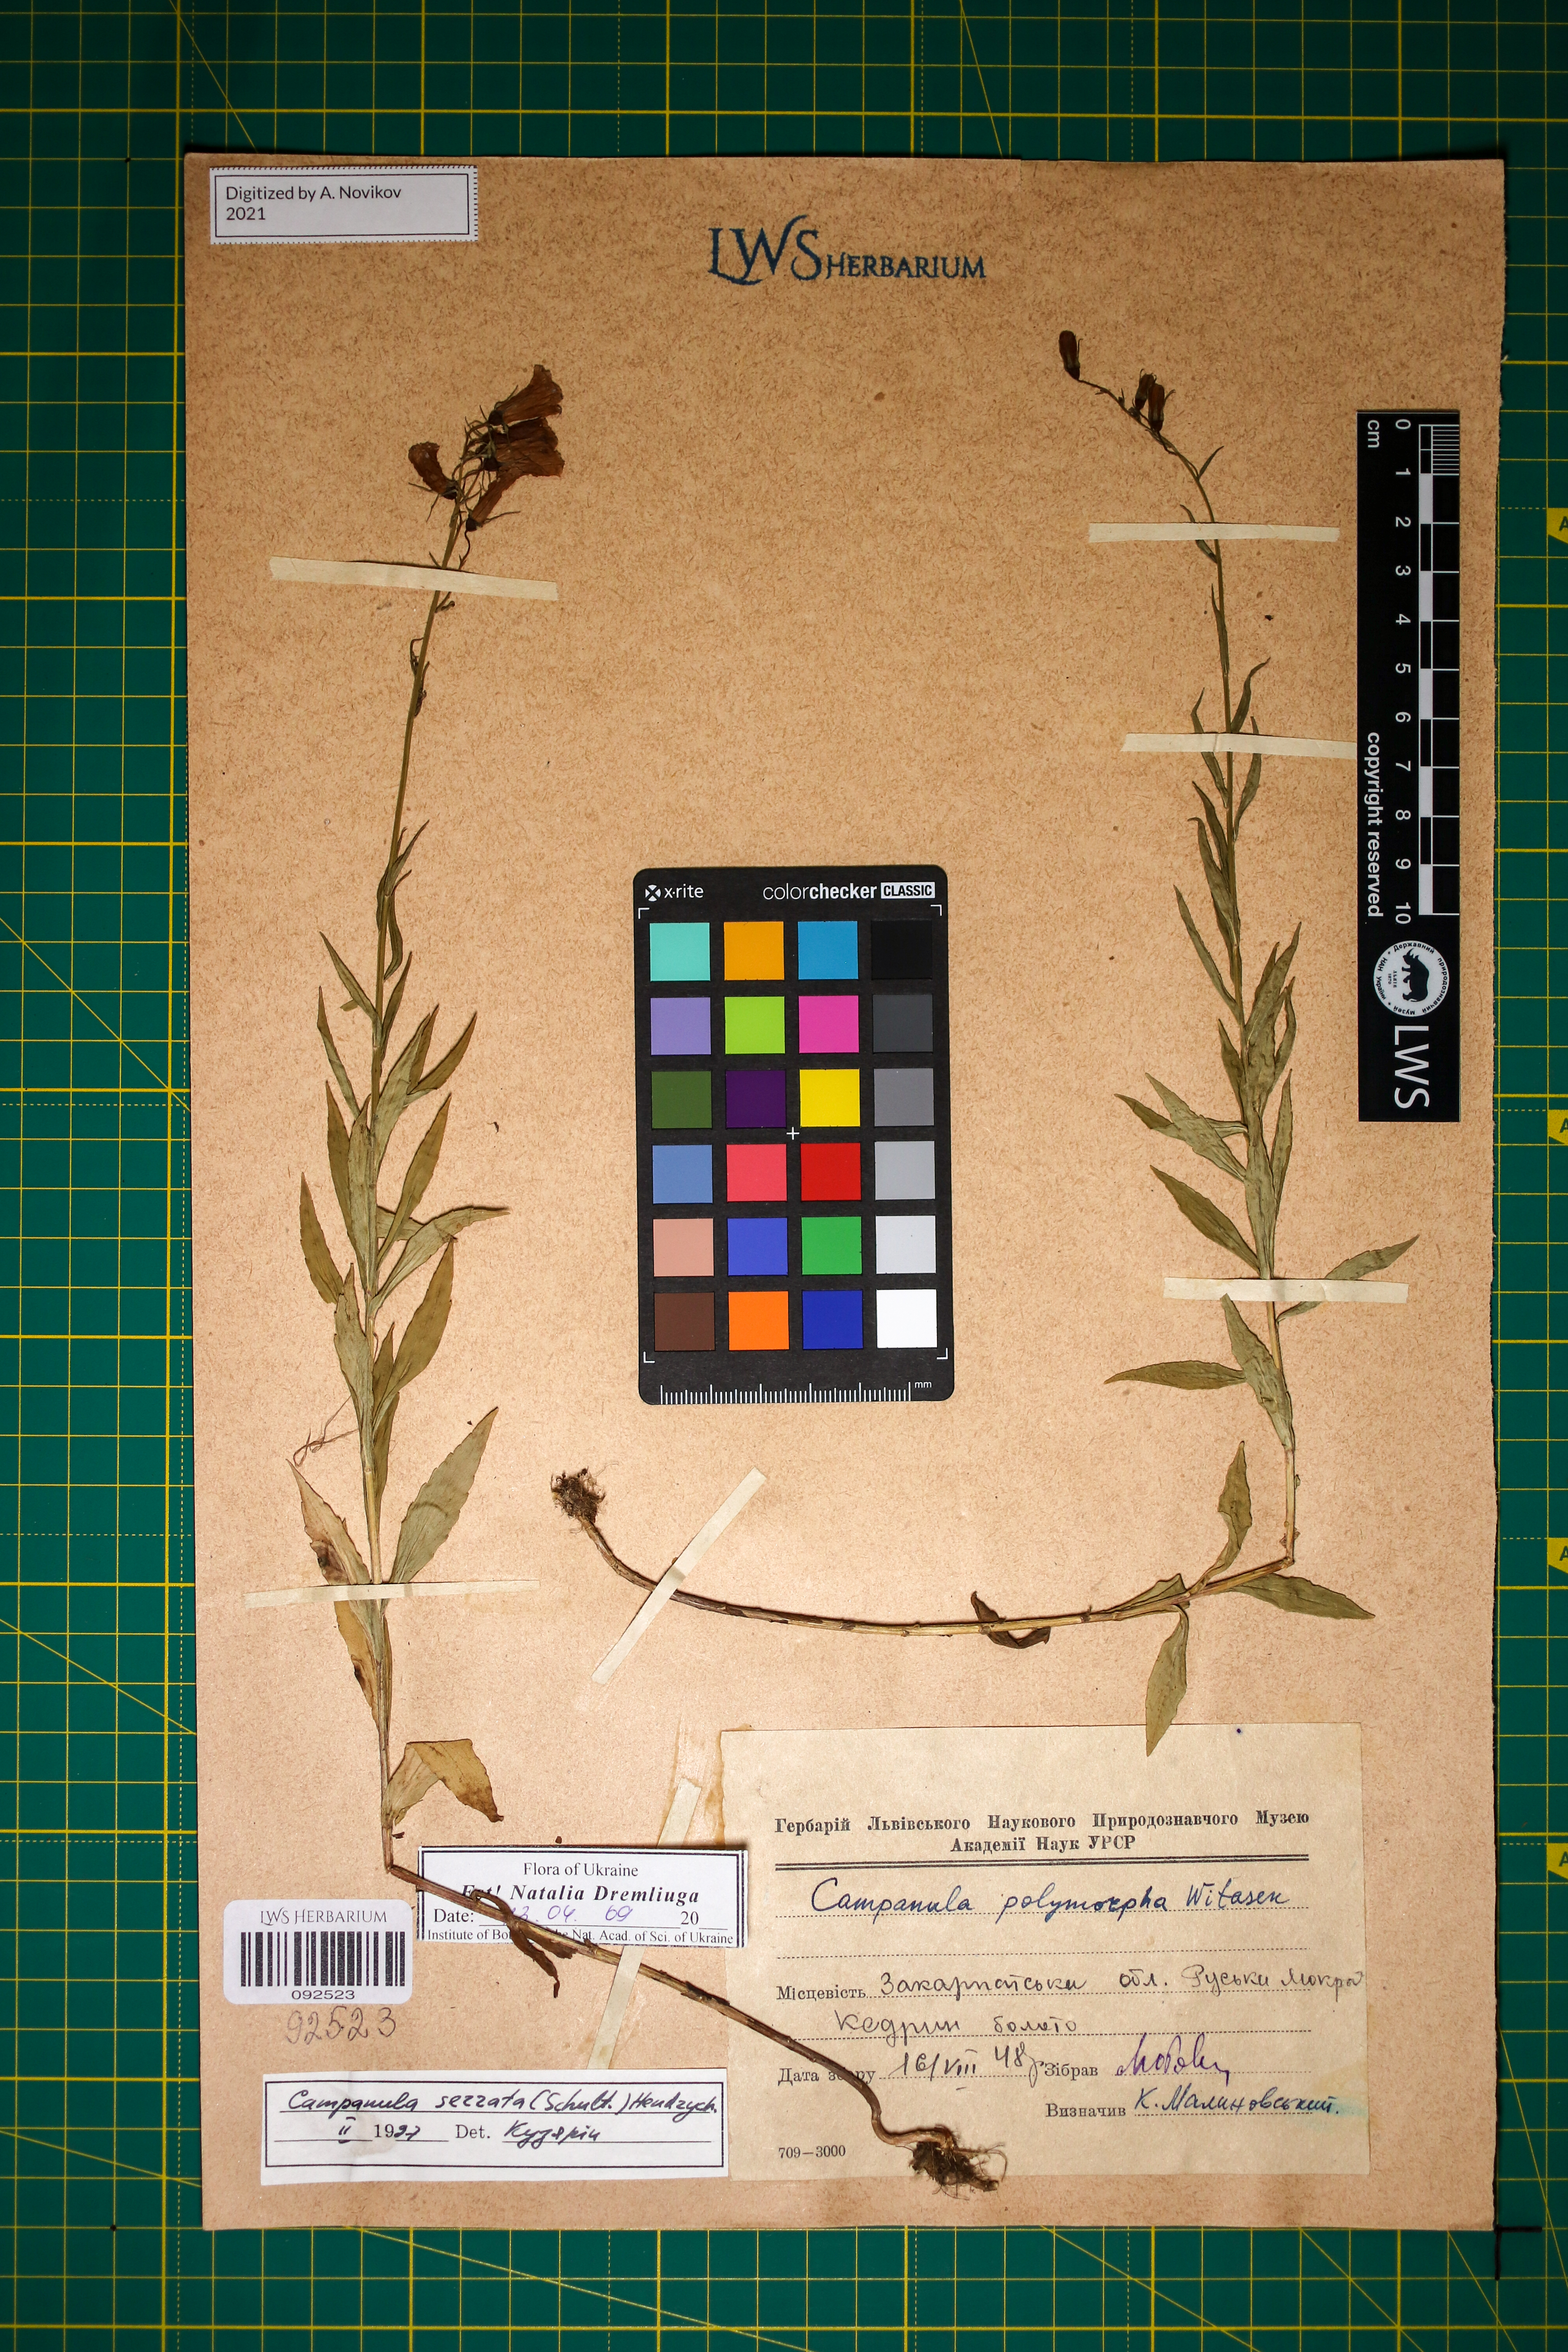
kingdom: Plantae
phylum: Tracheophyta
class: Magnoliopsida
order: Asterales
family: Campanulaceae
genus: Campanula
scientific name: Campanula serrata
